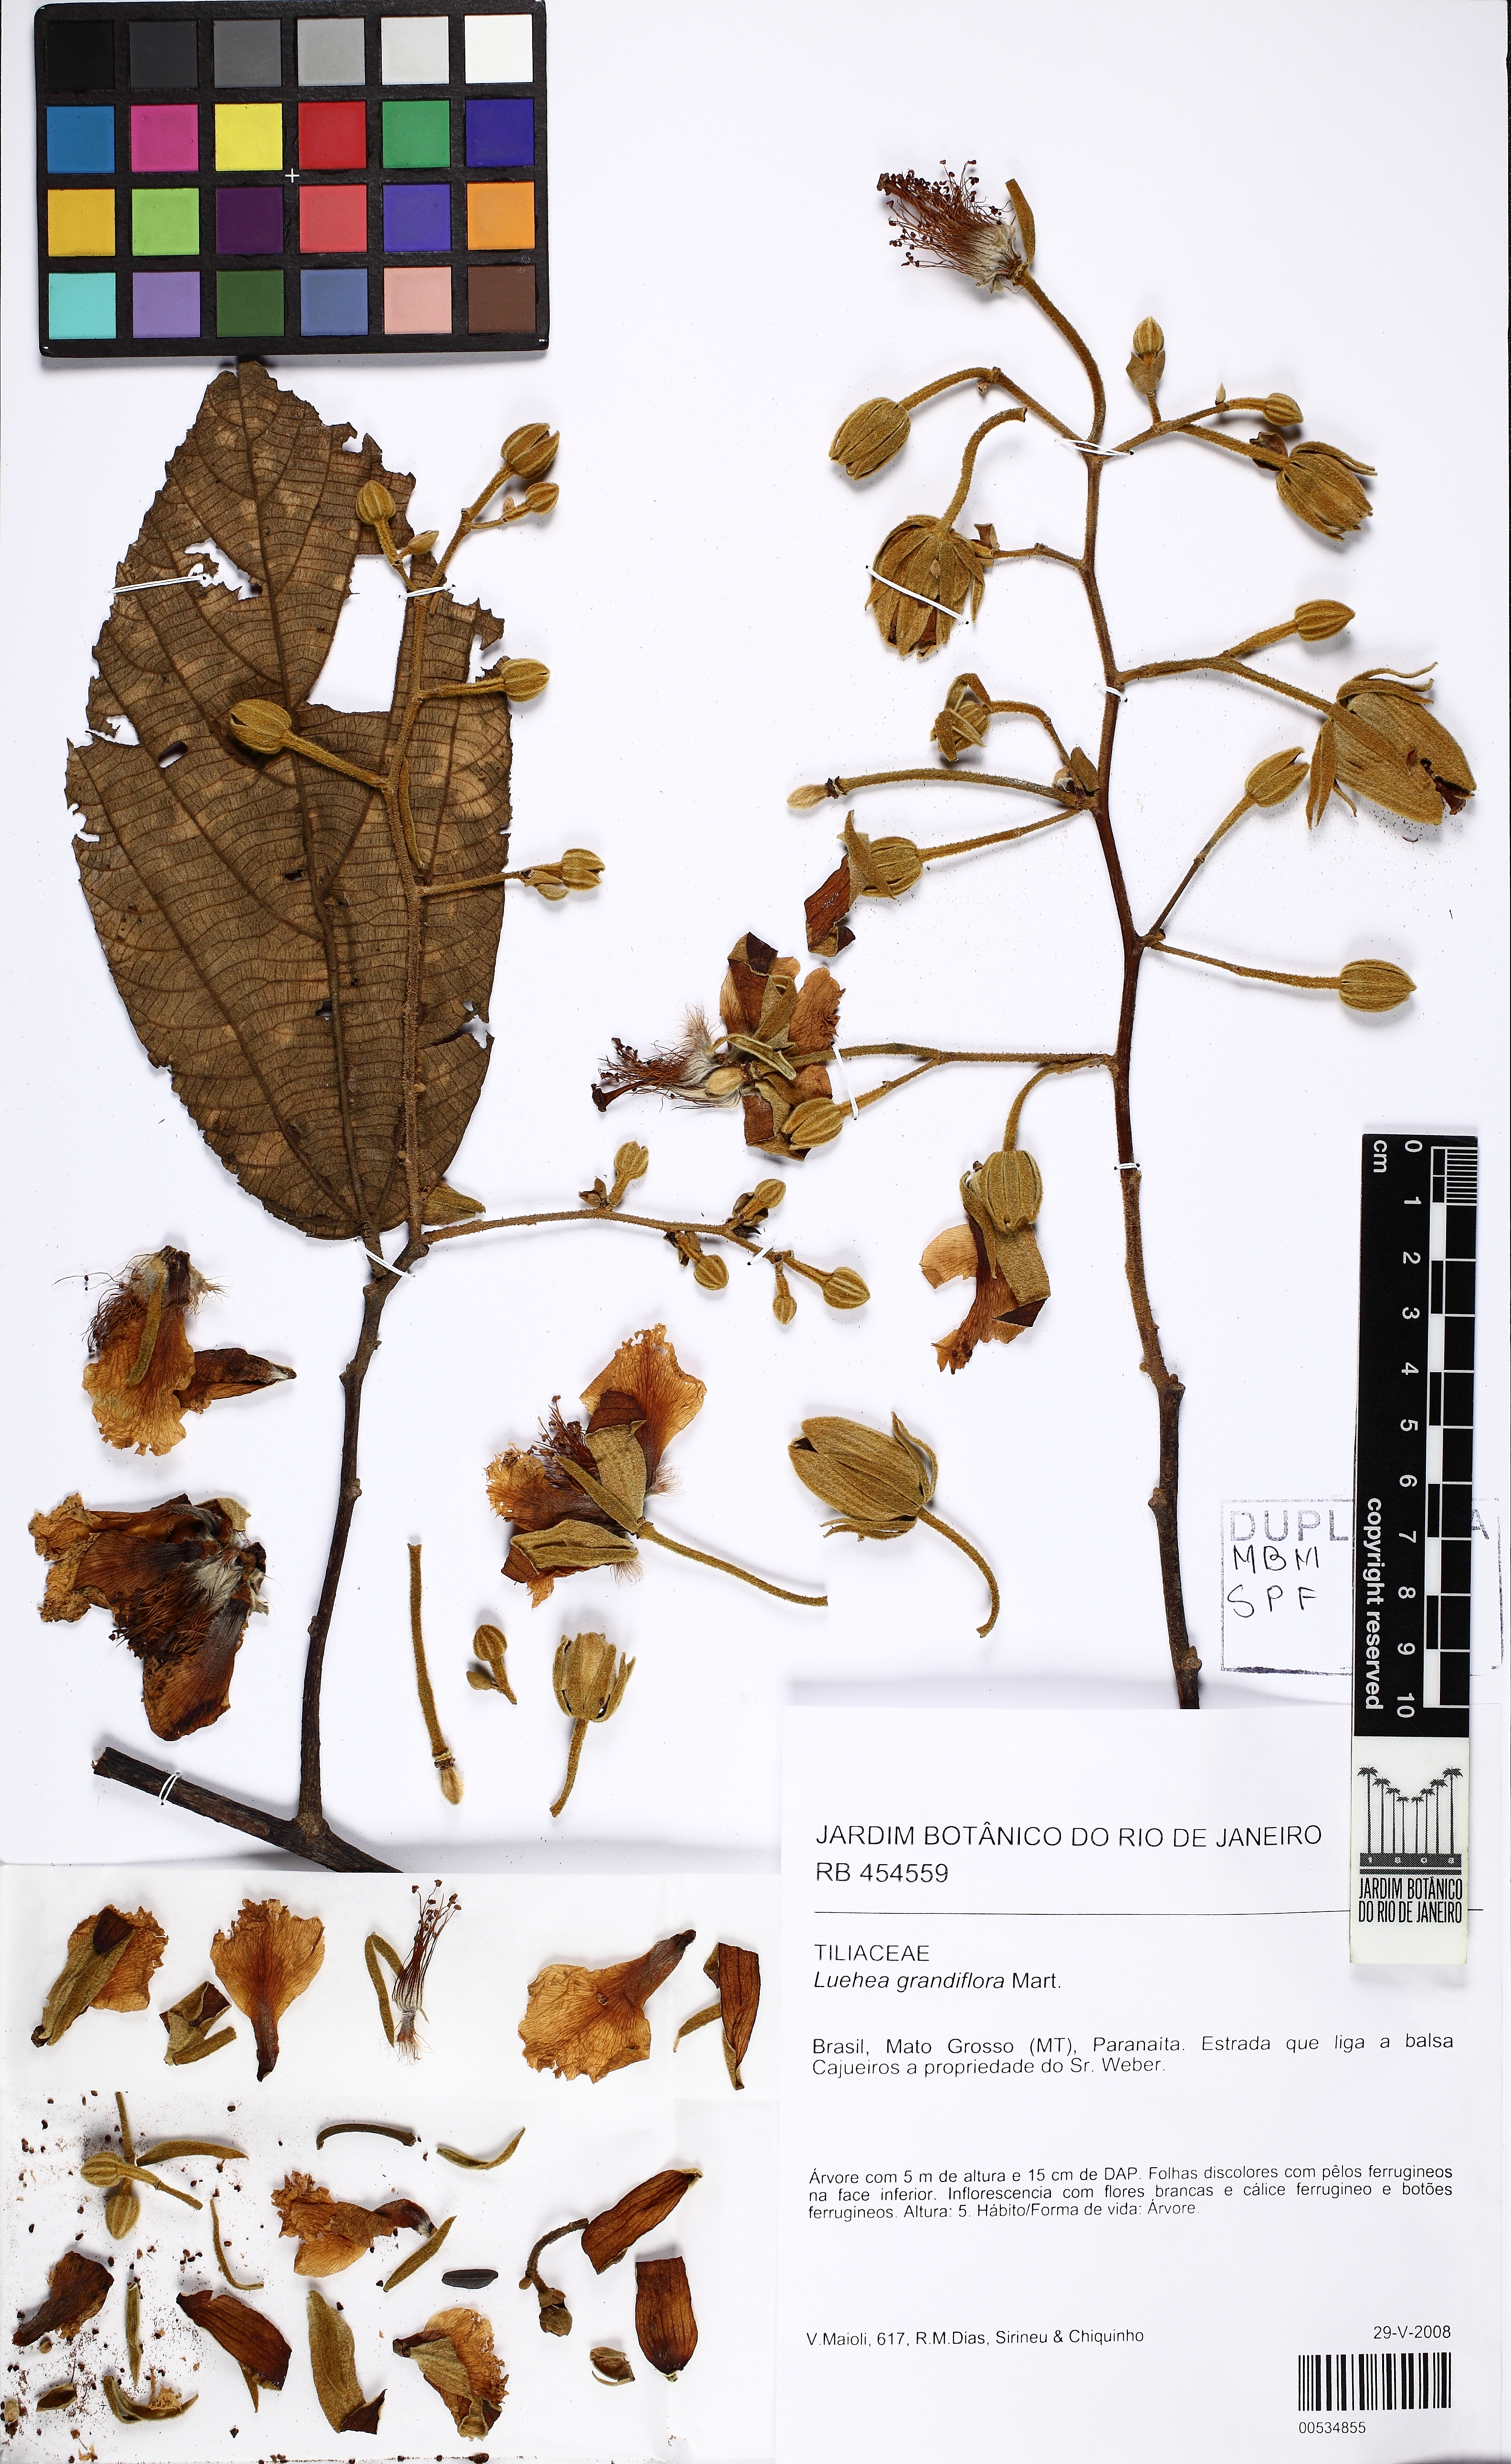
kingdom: Plantae
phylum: Tracheophyta
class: Magnoliopsida
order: Malvales
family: Malvaceae
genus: Luehea
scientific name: Luehea grandiflora
